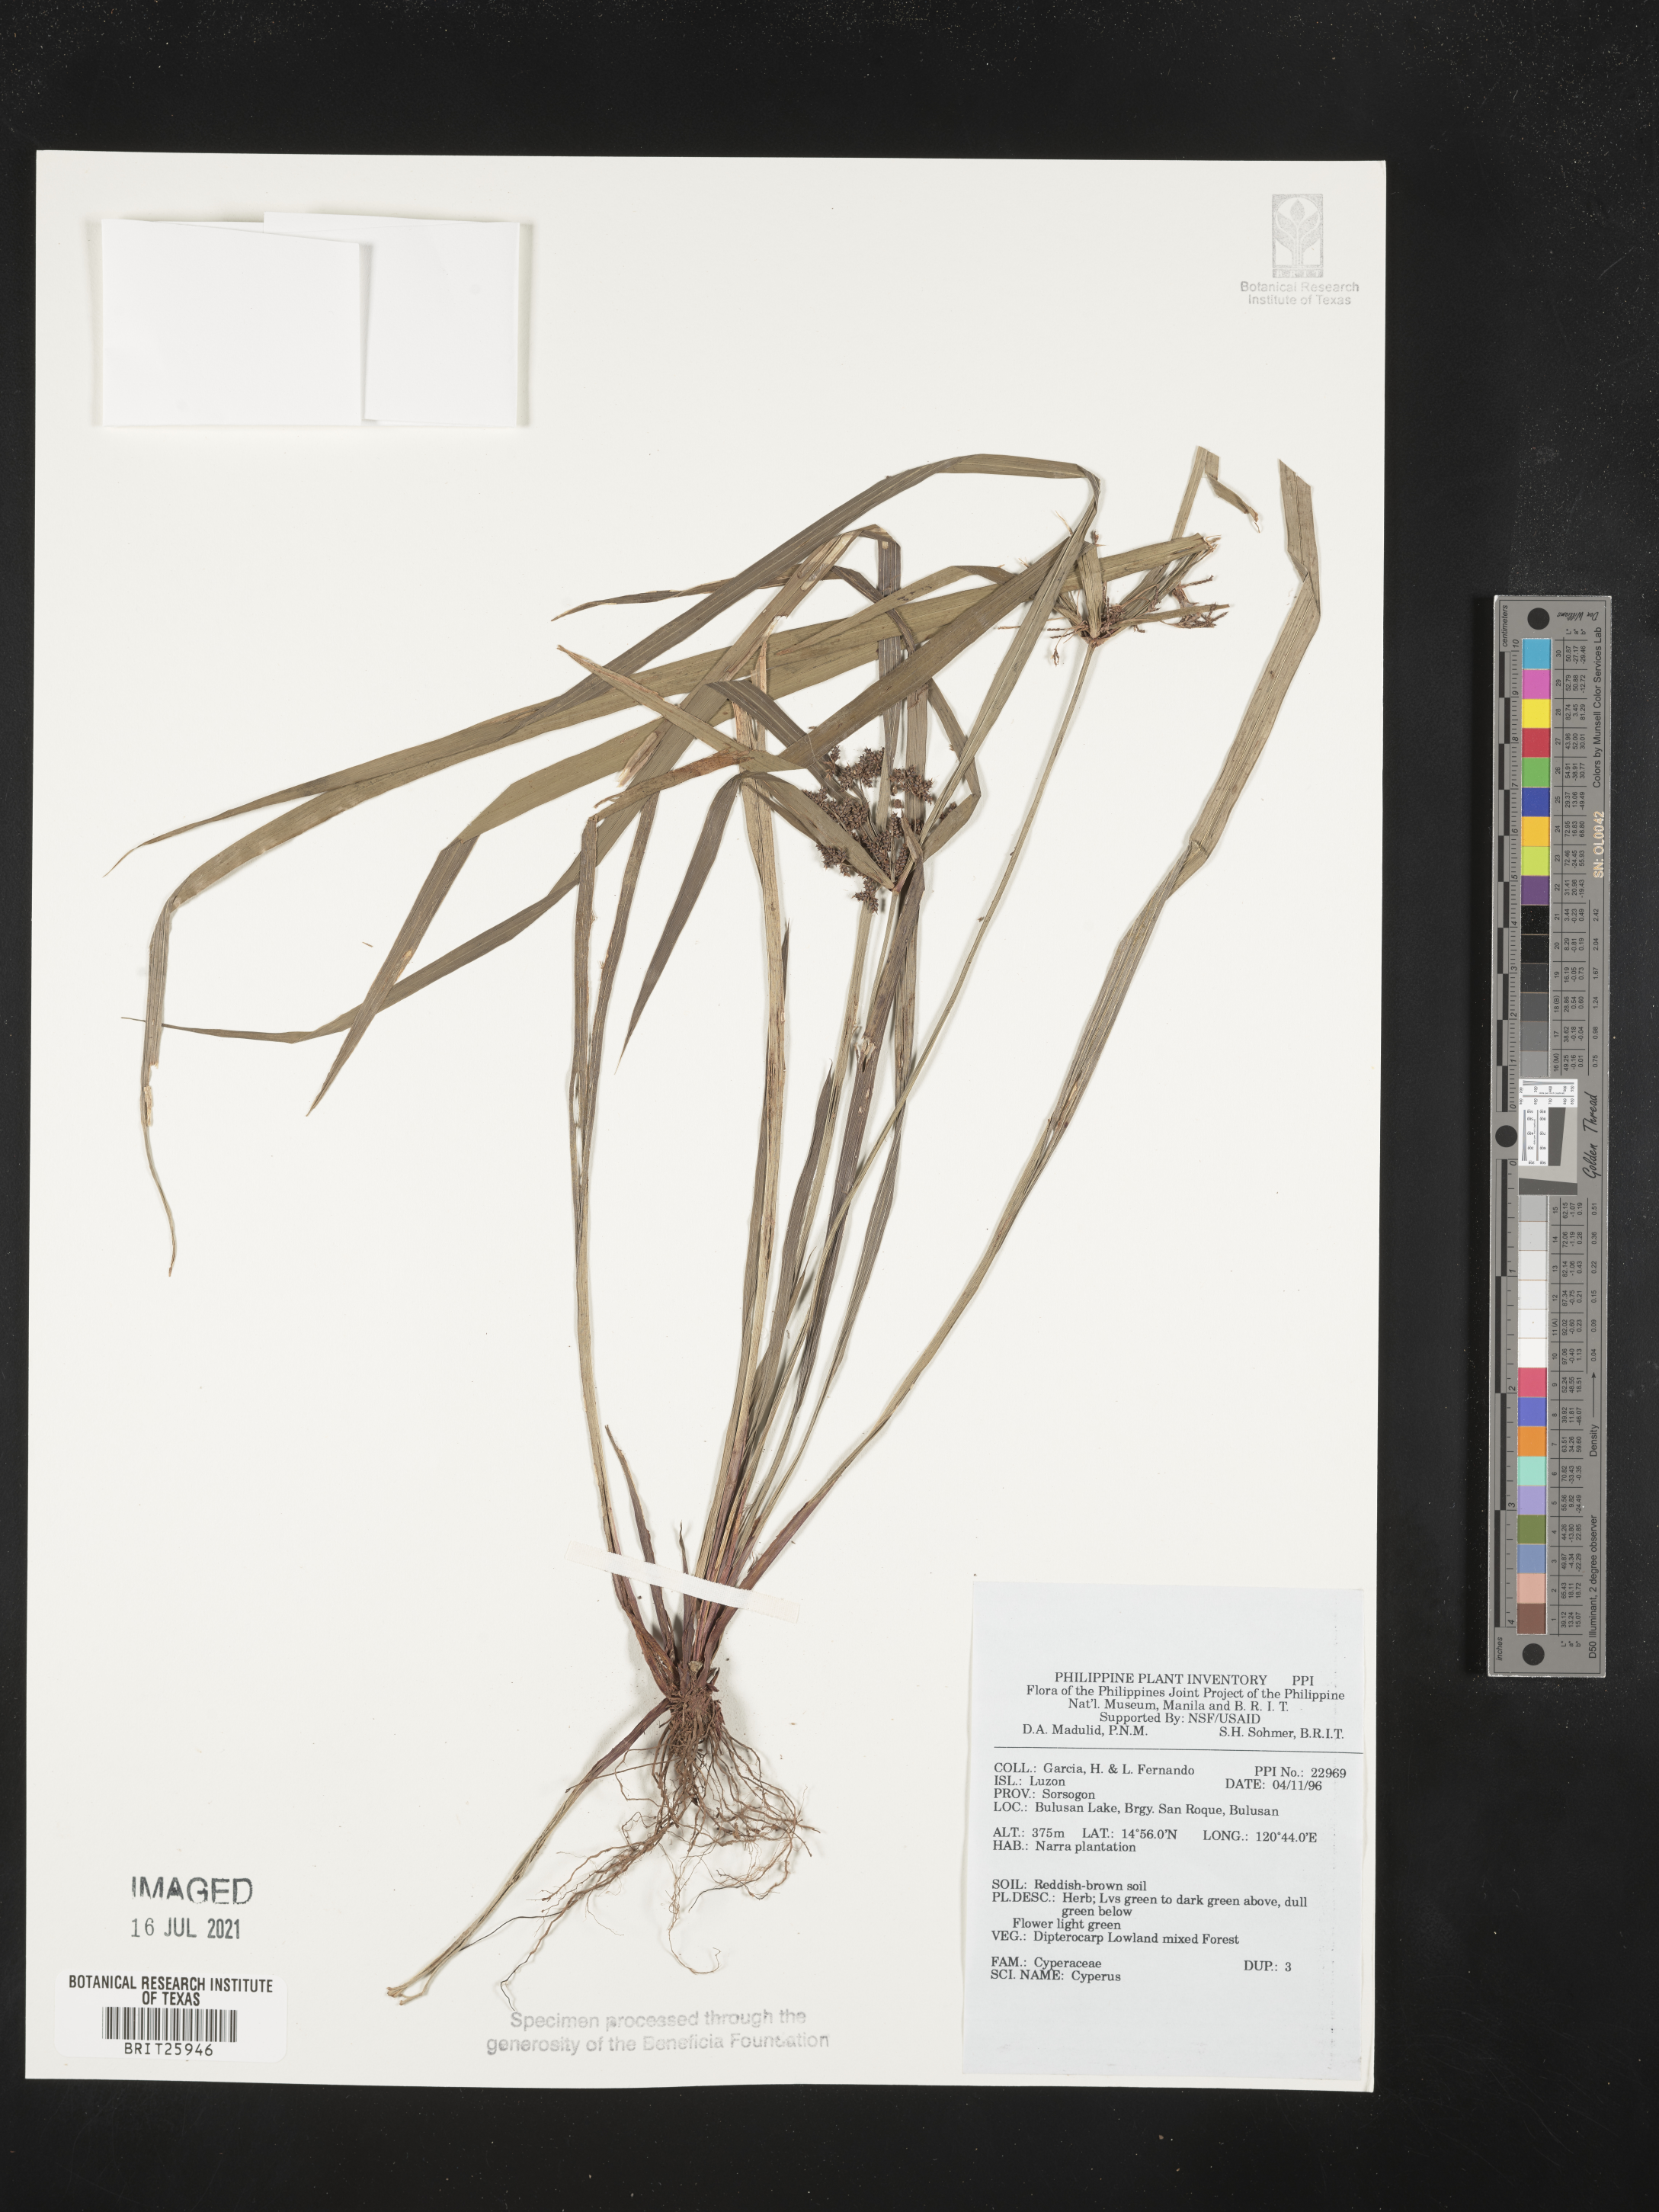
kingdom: Plantae
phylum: Tracheophyta
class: Liliopsida
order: Poales
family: Cyperaceae
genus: Cyperus
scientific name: Cyperus
